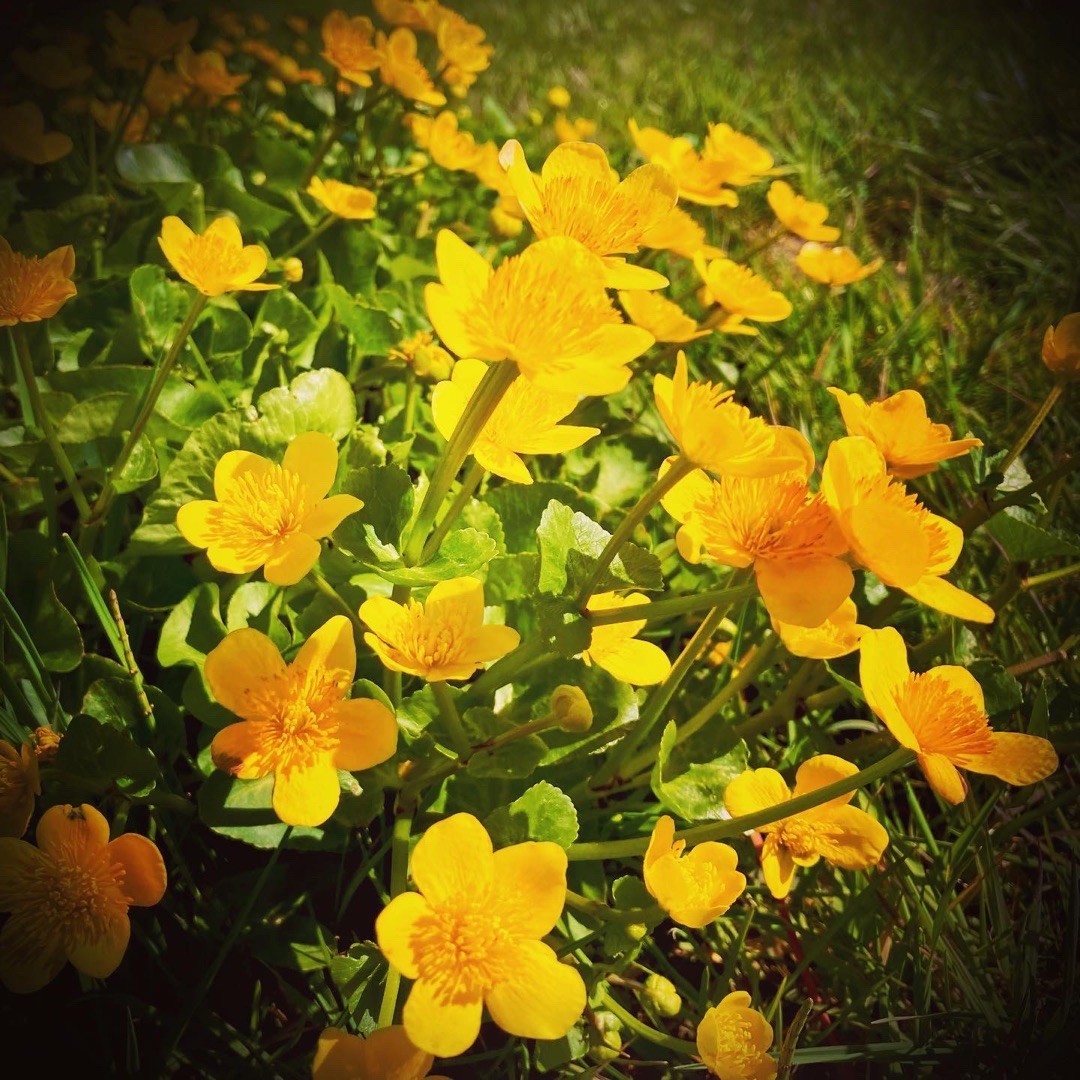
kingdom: Plantae
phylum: Tracheophyta
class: Magnoliopsida
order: Ranunculales
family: Ranunculaceae
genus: Caltha
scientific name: Caltha palustris
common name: Eng-kabbeleje
